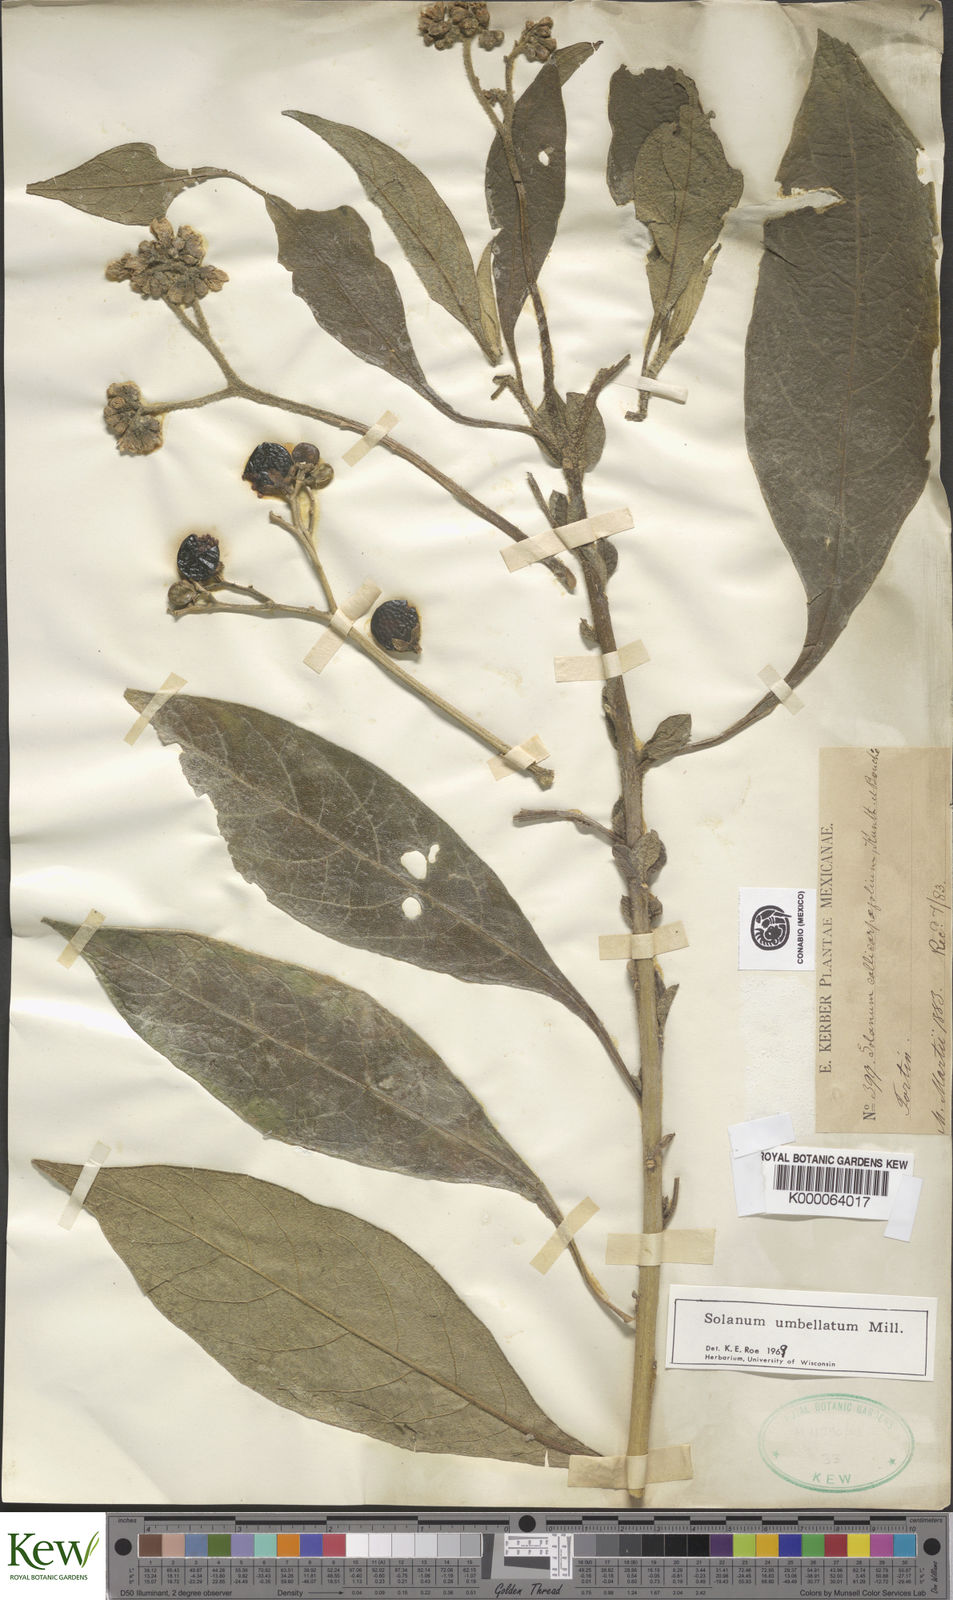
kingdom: Plantae
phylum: Tracheophyta
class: Magnoliopsida
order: Solanales
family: Solanaceae
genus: Solanum
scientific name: Solanum umbellatum
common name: Nightshade
